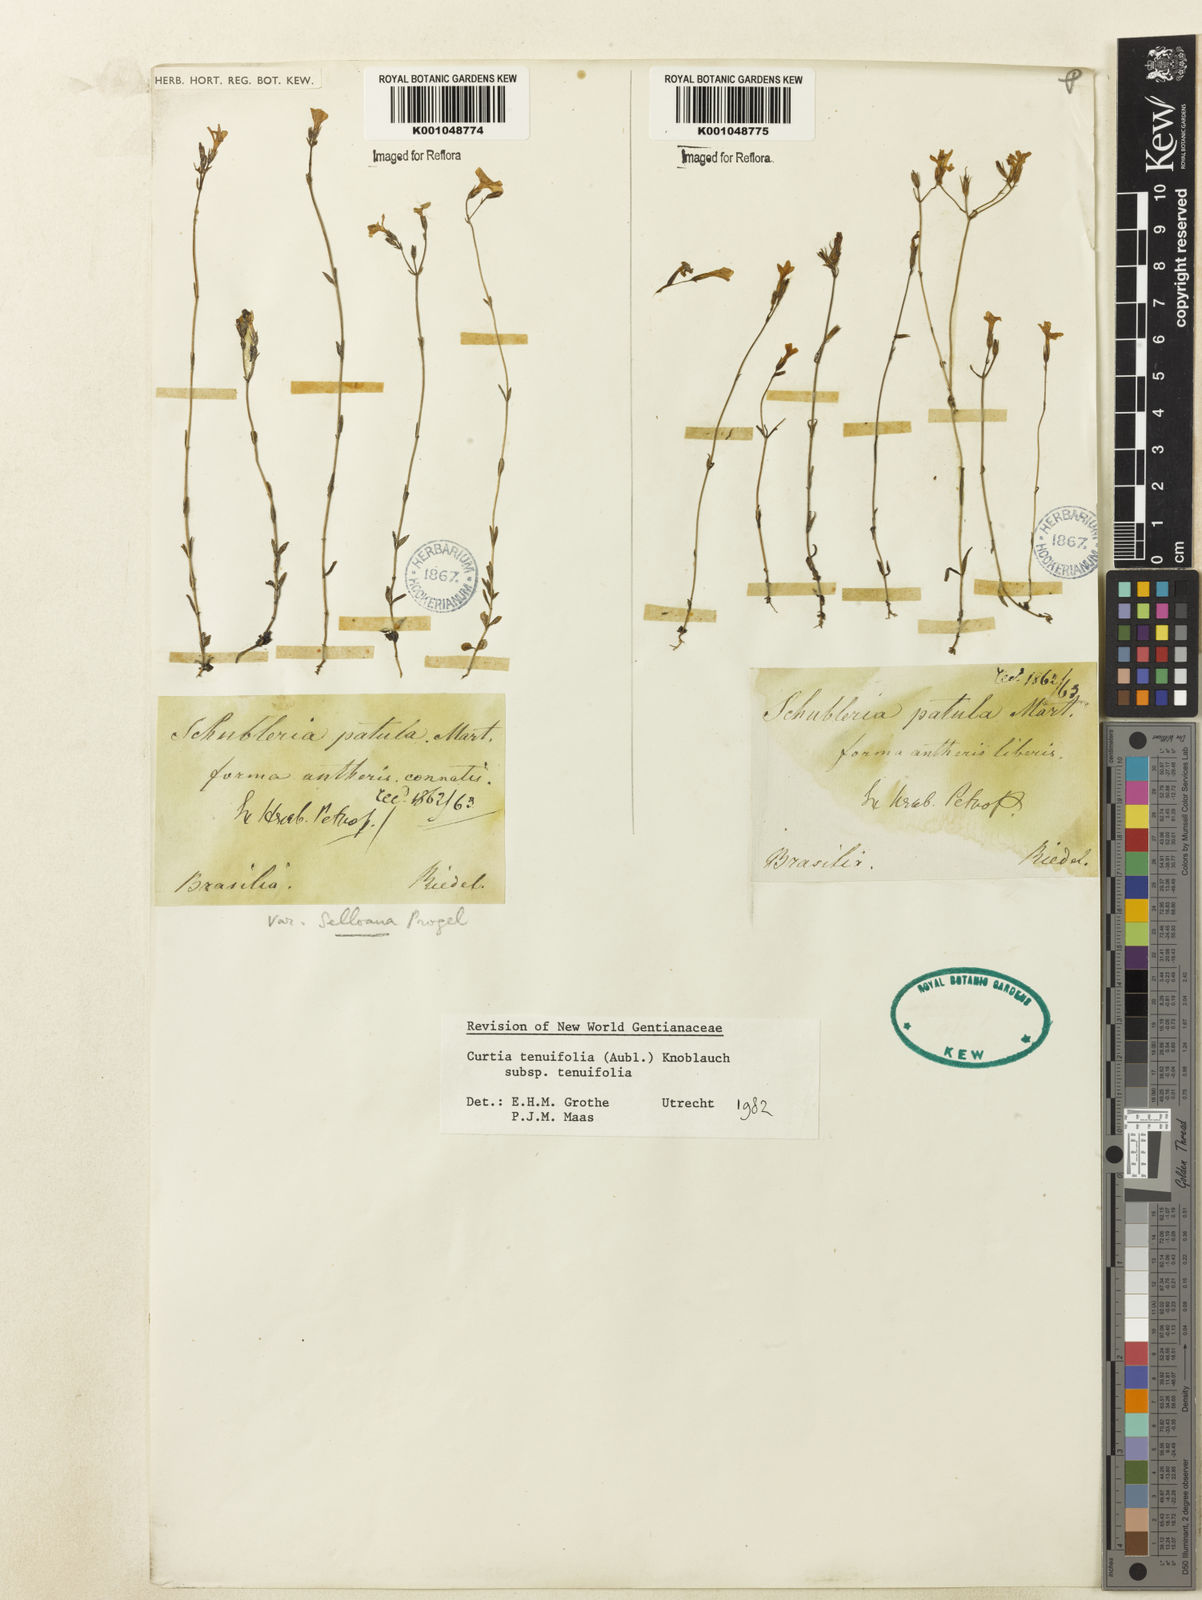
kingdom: Plantae
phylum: Tracheophyta
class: Magnoliopsida
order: Gentianales
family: Gentianaceae
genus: Curtia
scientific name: Curtia tenuifolia
